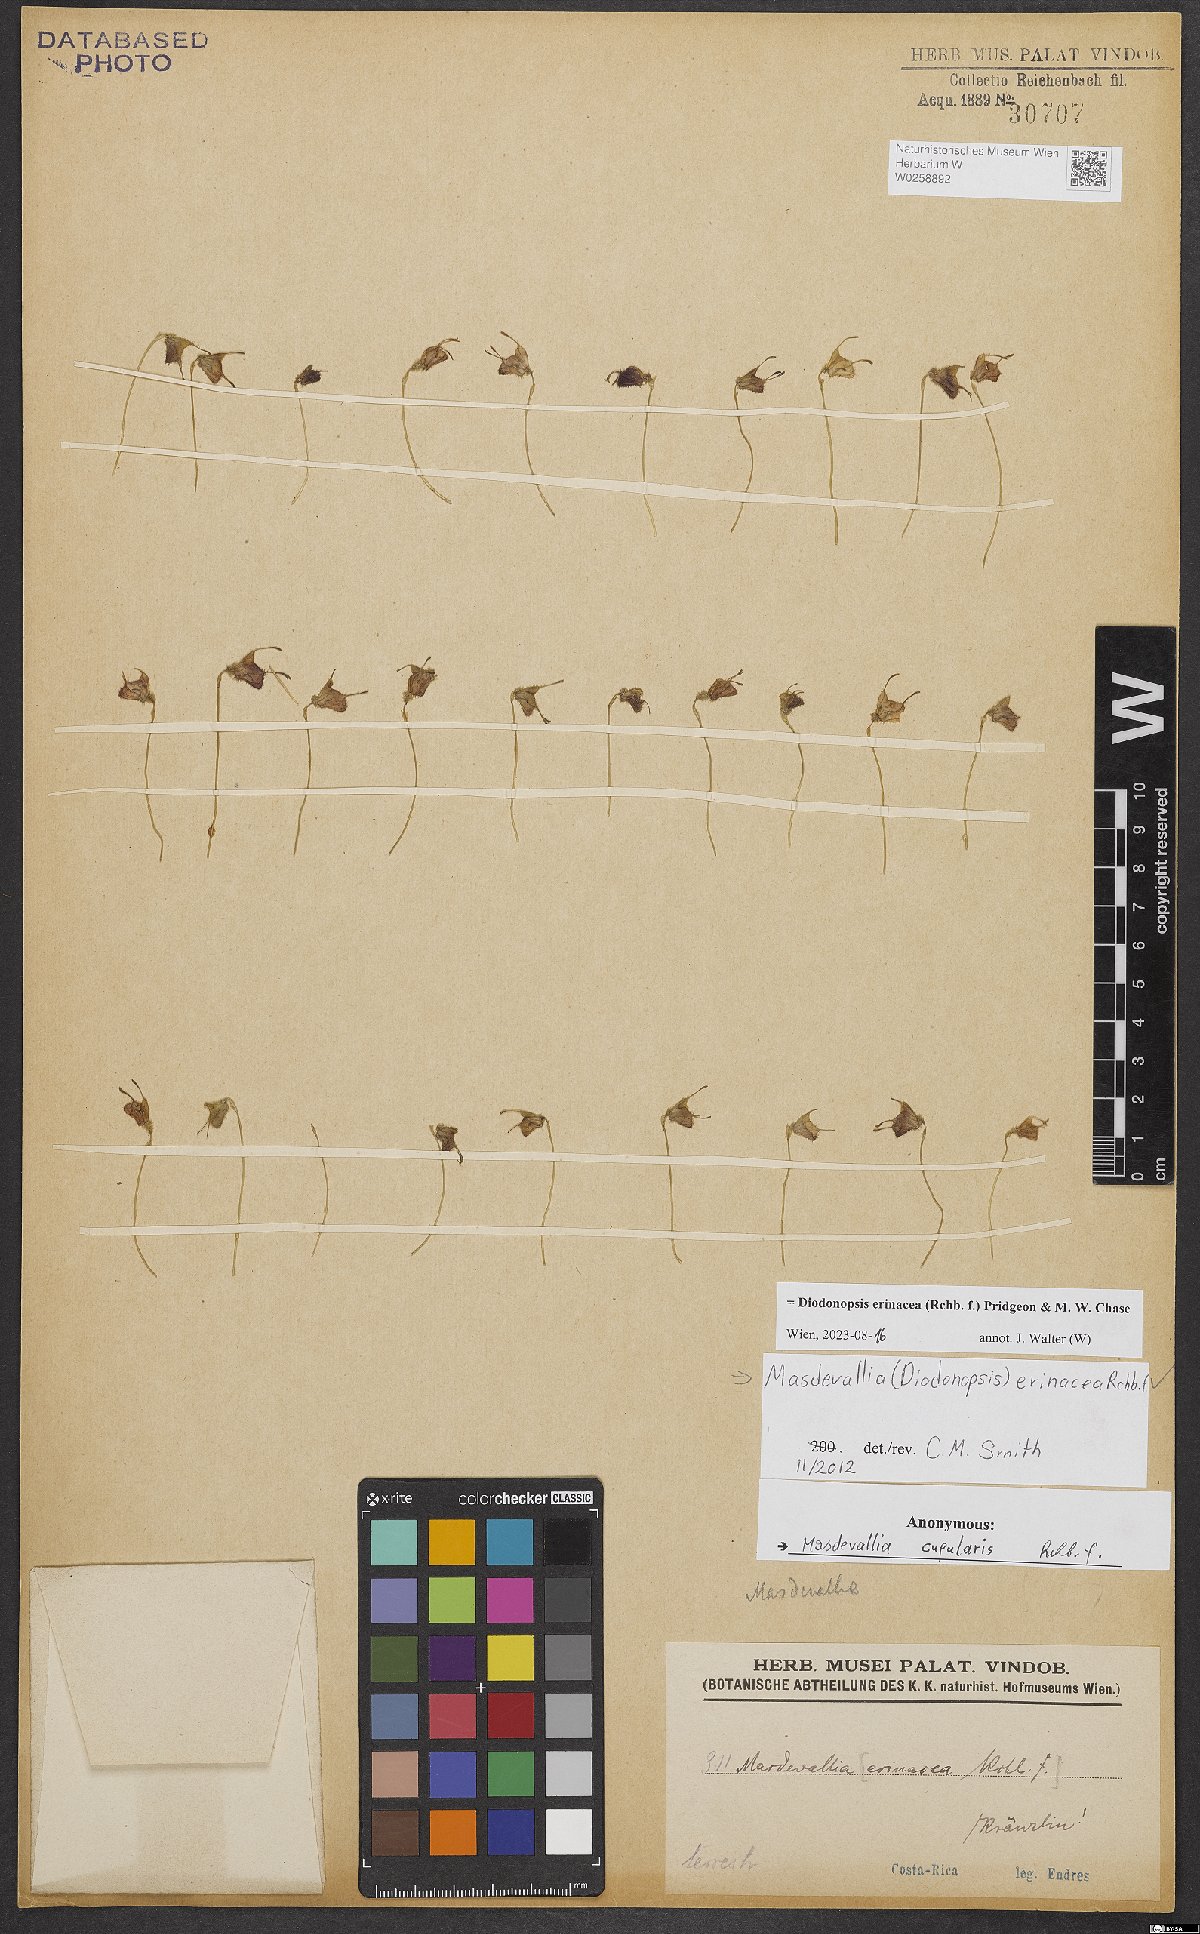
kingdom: Plantae
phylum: Tracheophyta
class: Liliopsida
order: Asparagales
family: Orchidaceae
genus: Diodonopsis
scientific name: Diodonopsis erinacea
